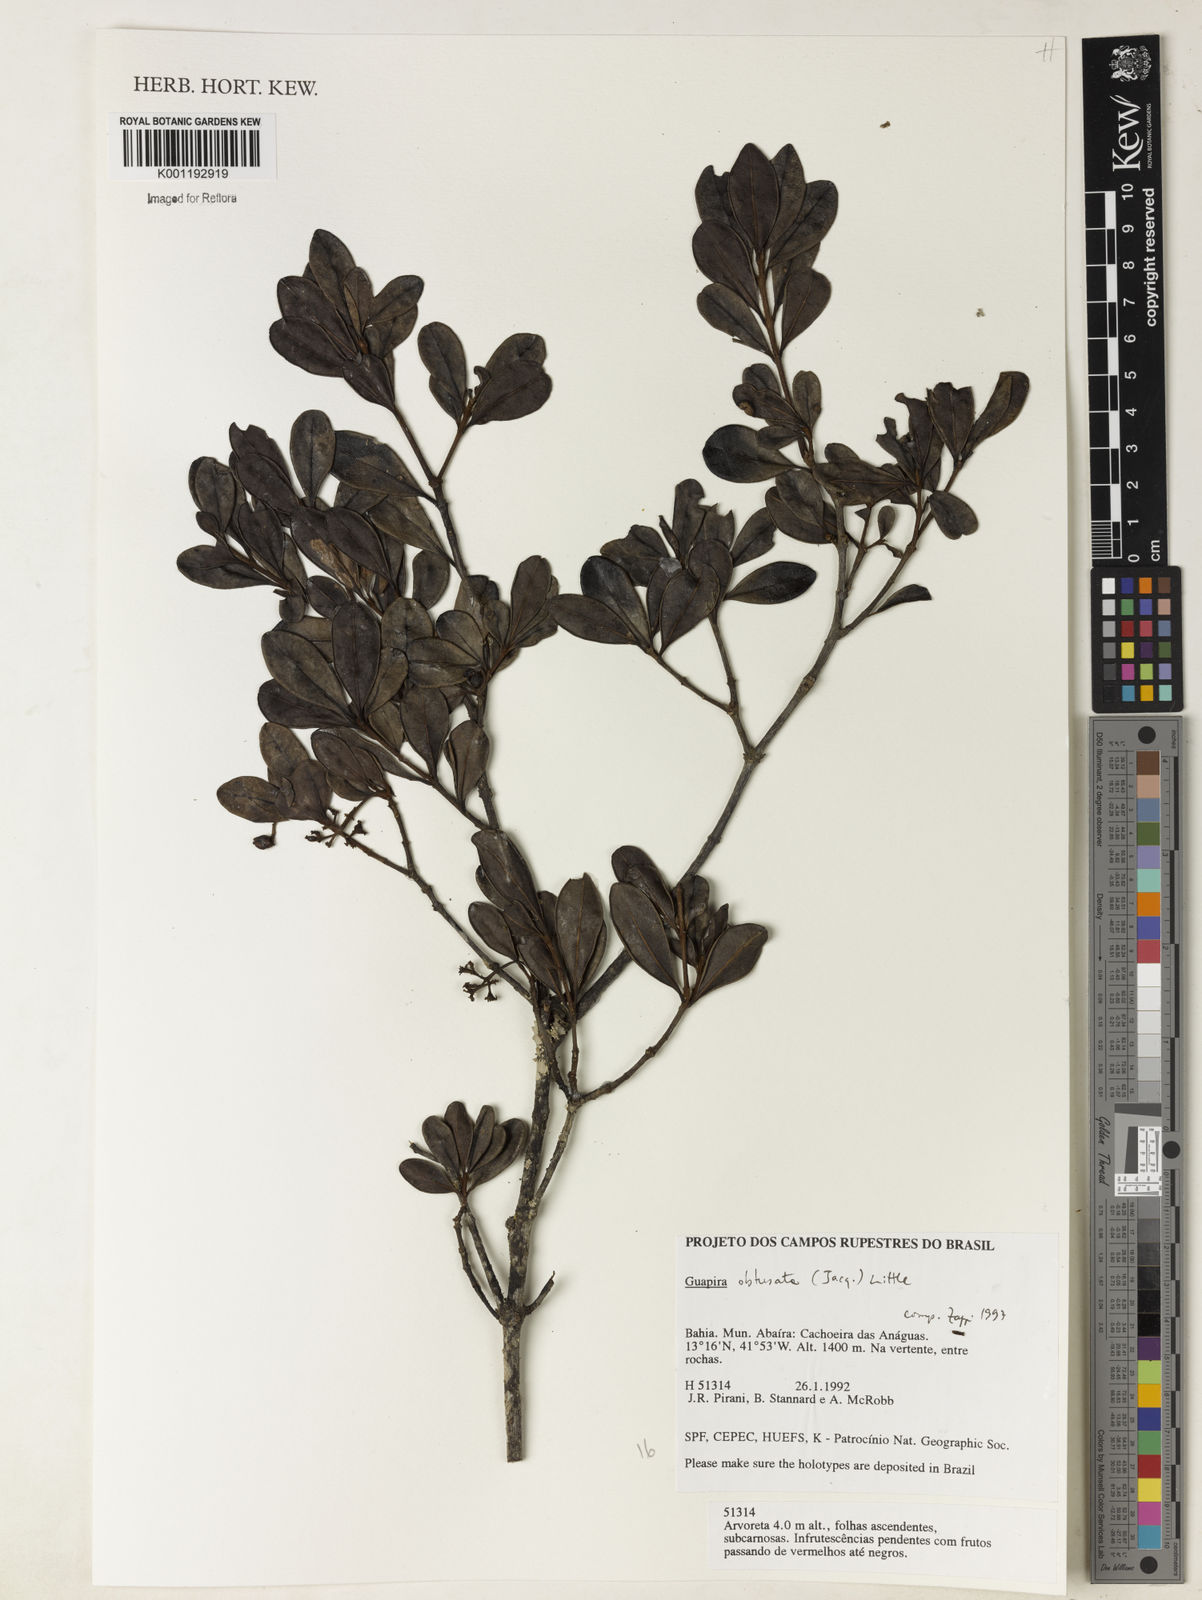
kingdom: Plantae
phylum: Tracheophyta
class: Magnoliopsida
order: Caryophyllales
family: Nyctaginaceae
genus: Guapira
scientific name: Guapira obtusata
